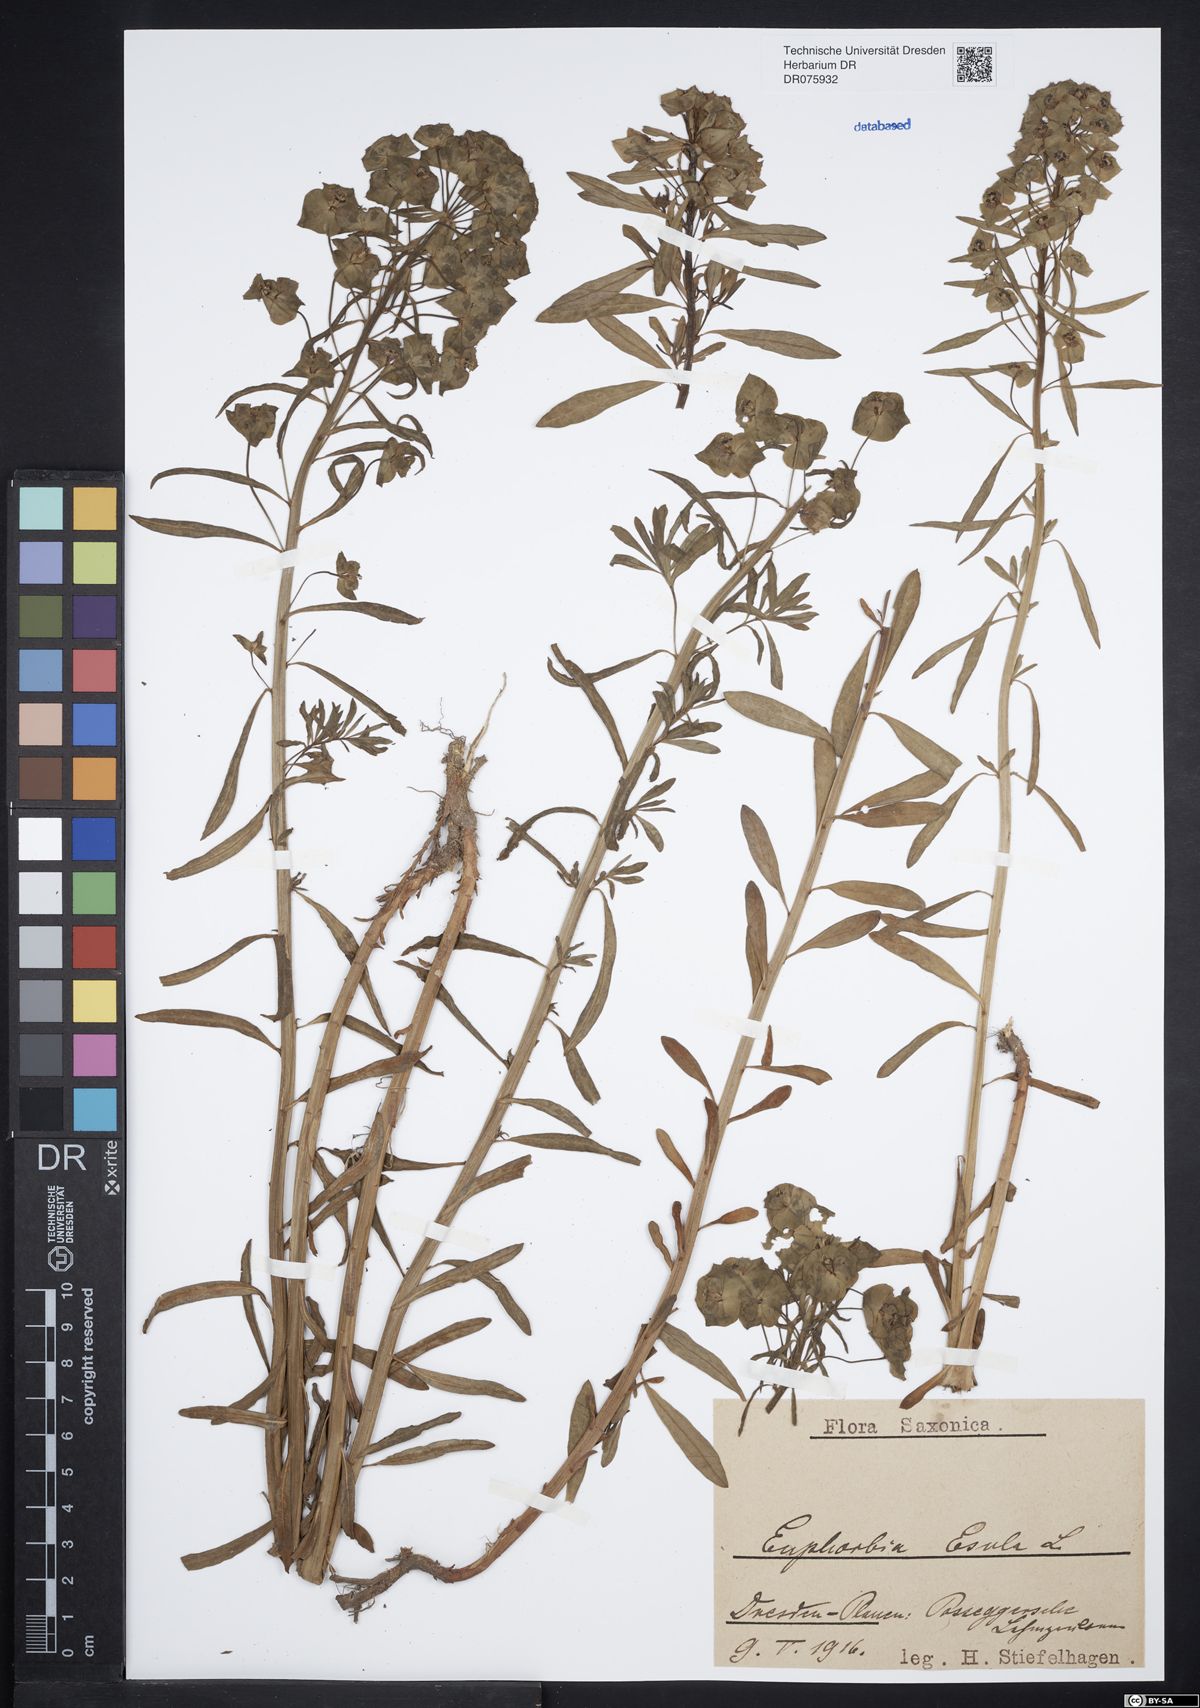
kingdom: Plantae
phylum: Tracheophyta
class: Magnoliopsida
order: Malpighiales
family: Euphorbiaceae
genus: Euphorbia
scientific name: Euphorbia esula
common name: Leafy spurge
